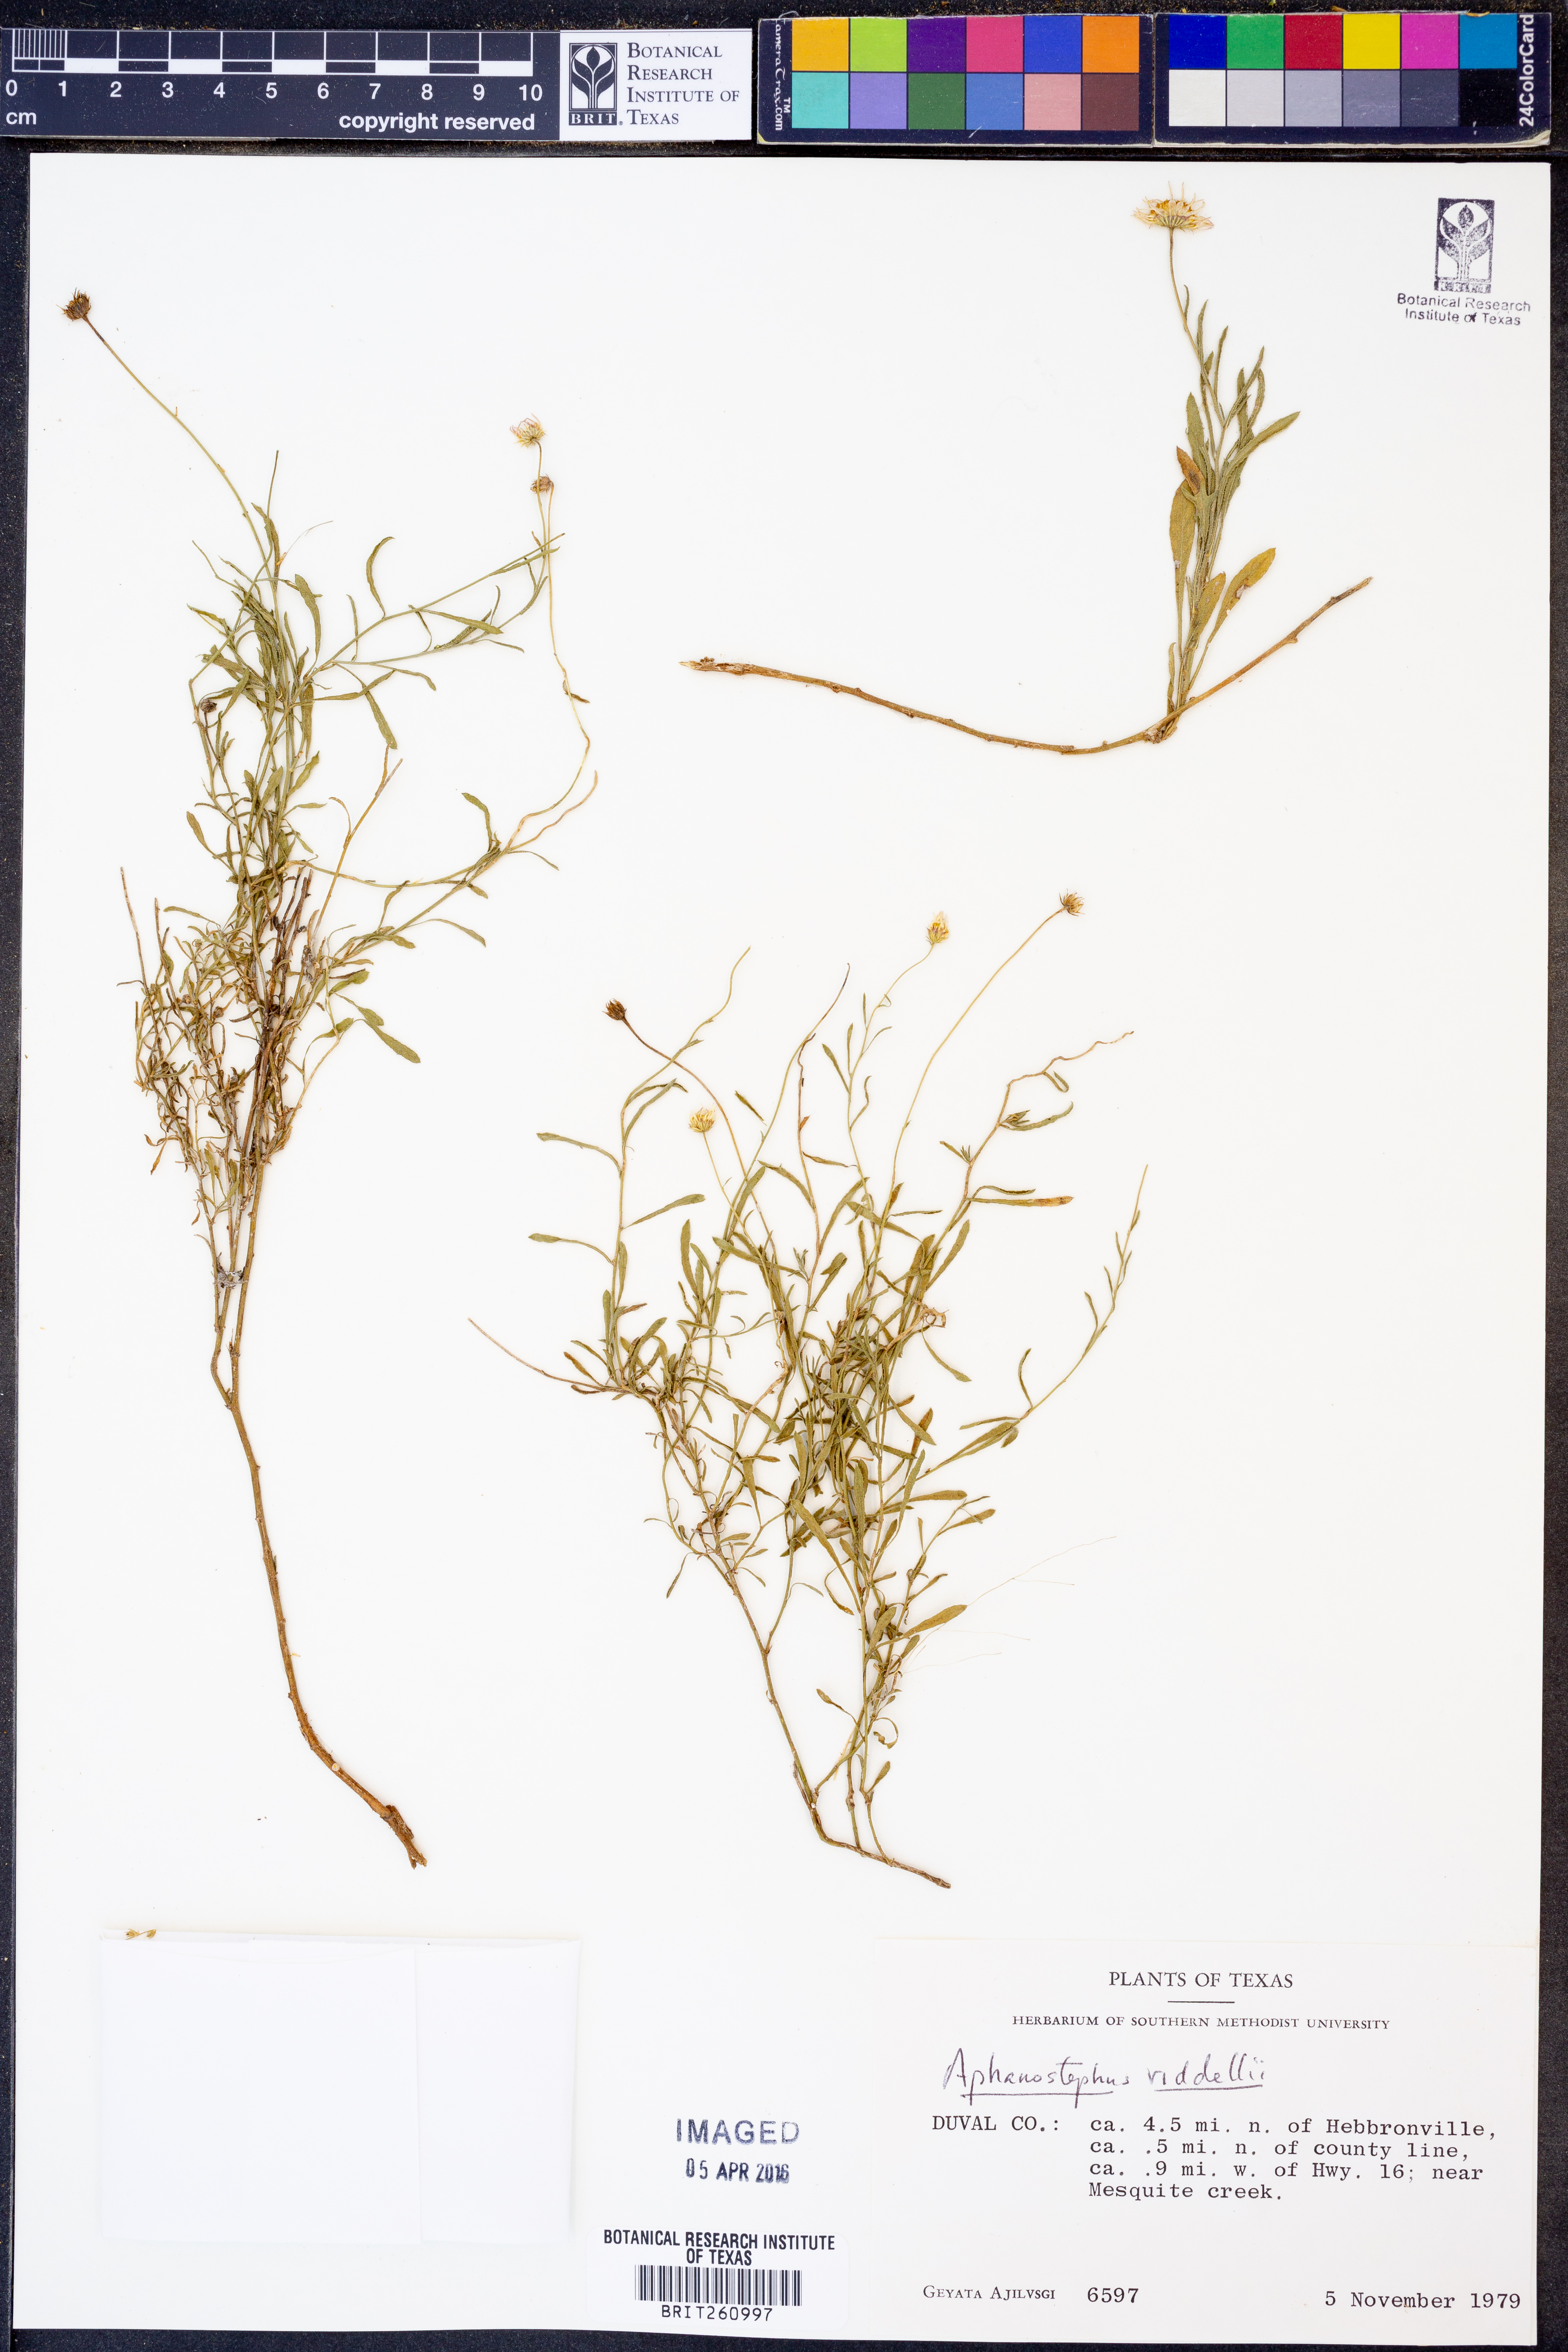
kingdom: Plantae
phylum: Tracheophyta
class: Magnoliopsida
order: Asterales
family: Asteraceae
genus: Aphanostephus
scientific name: Aphanostephus riddellii
